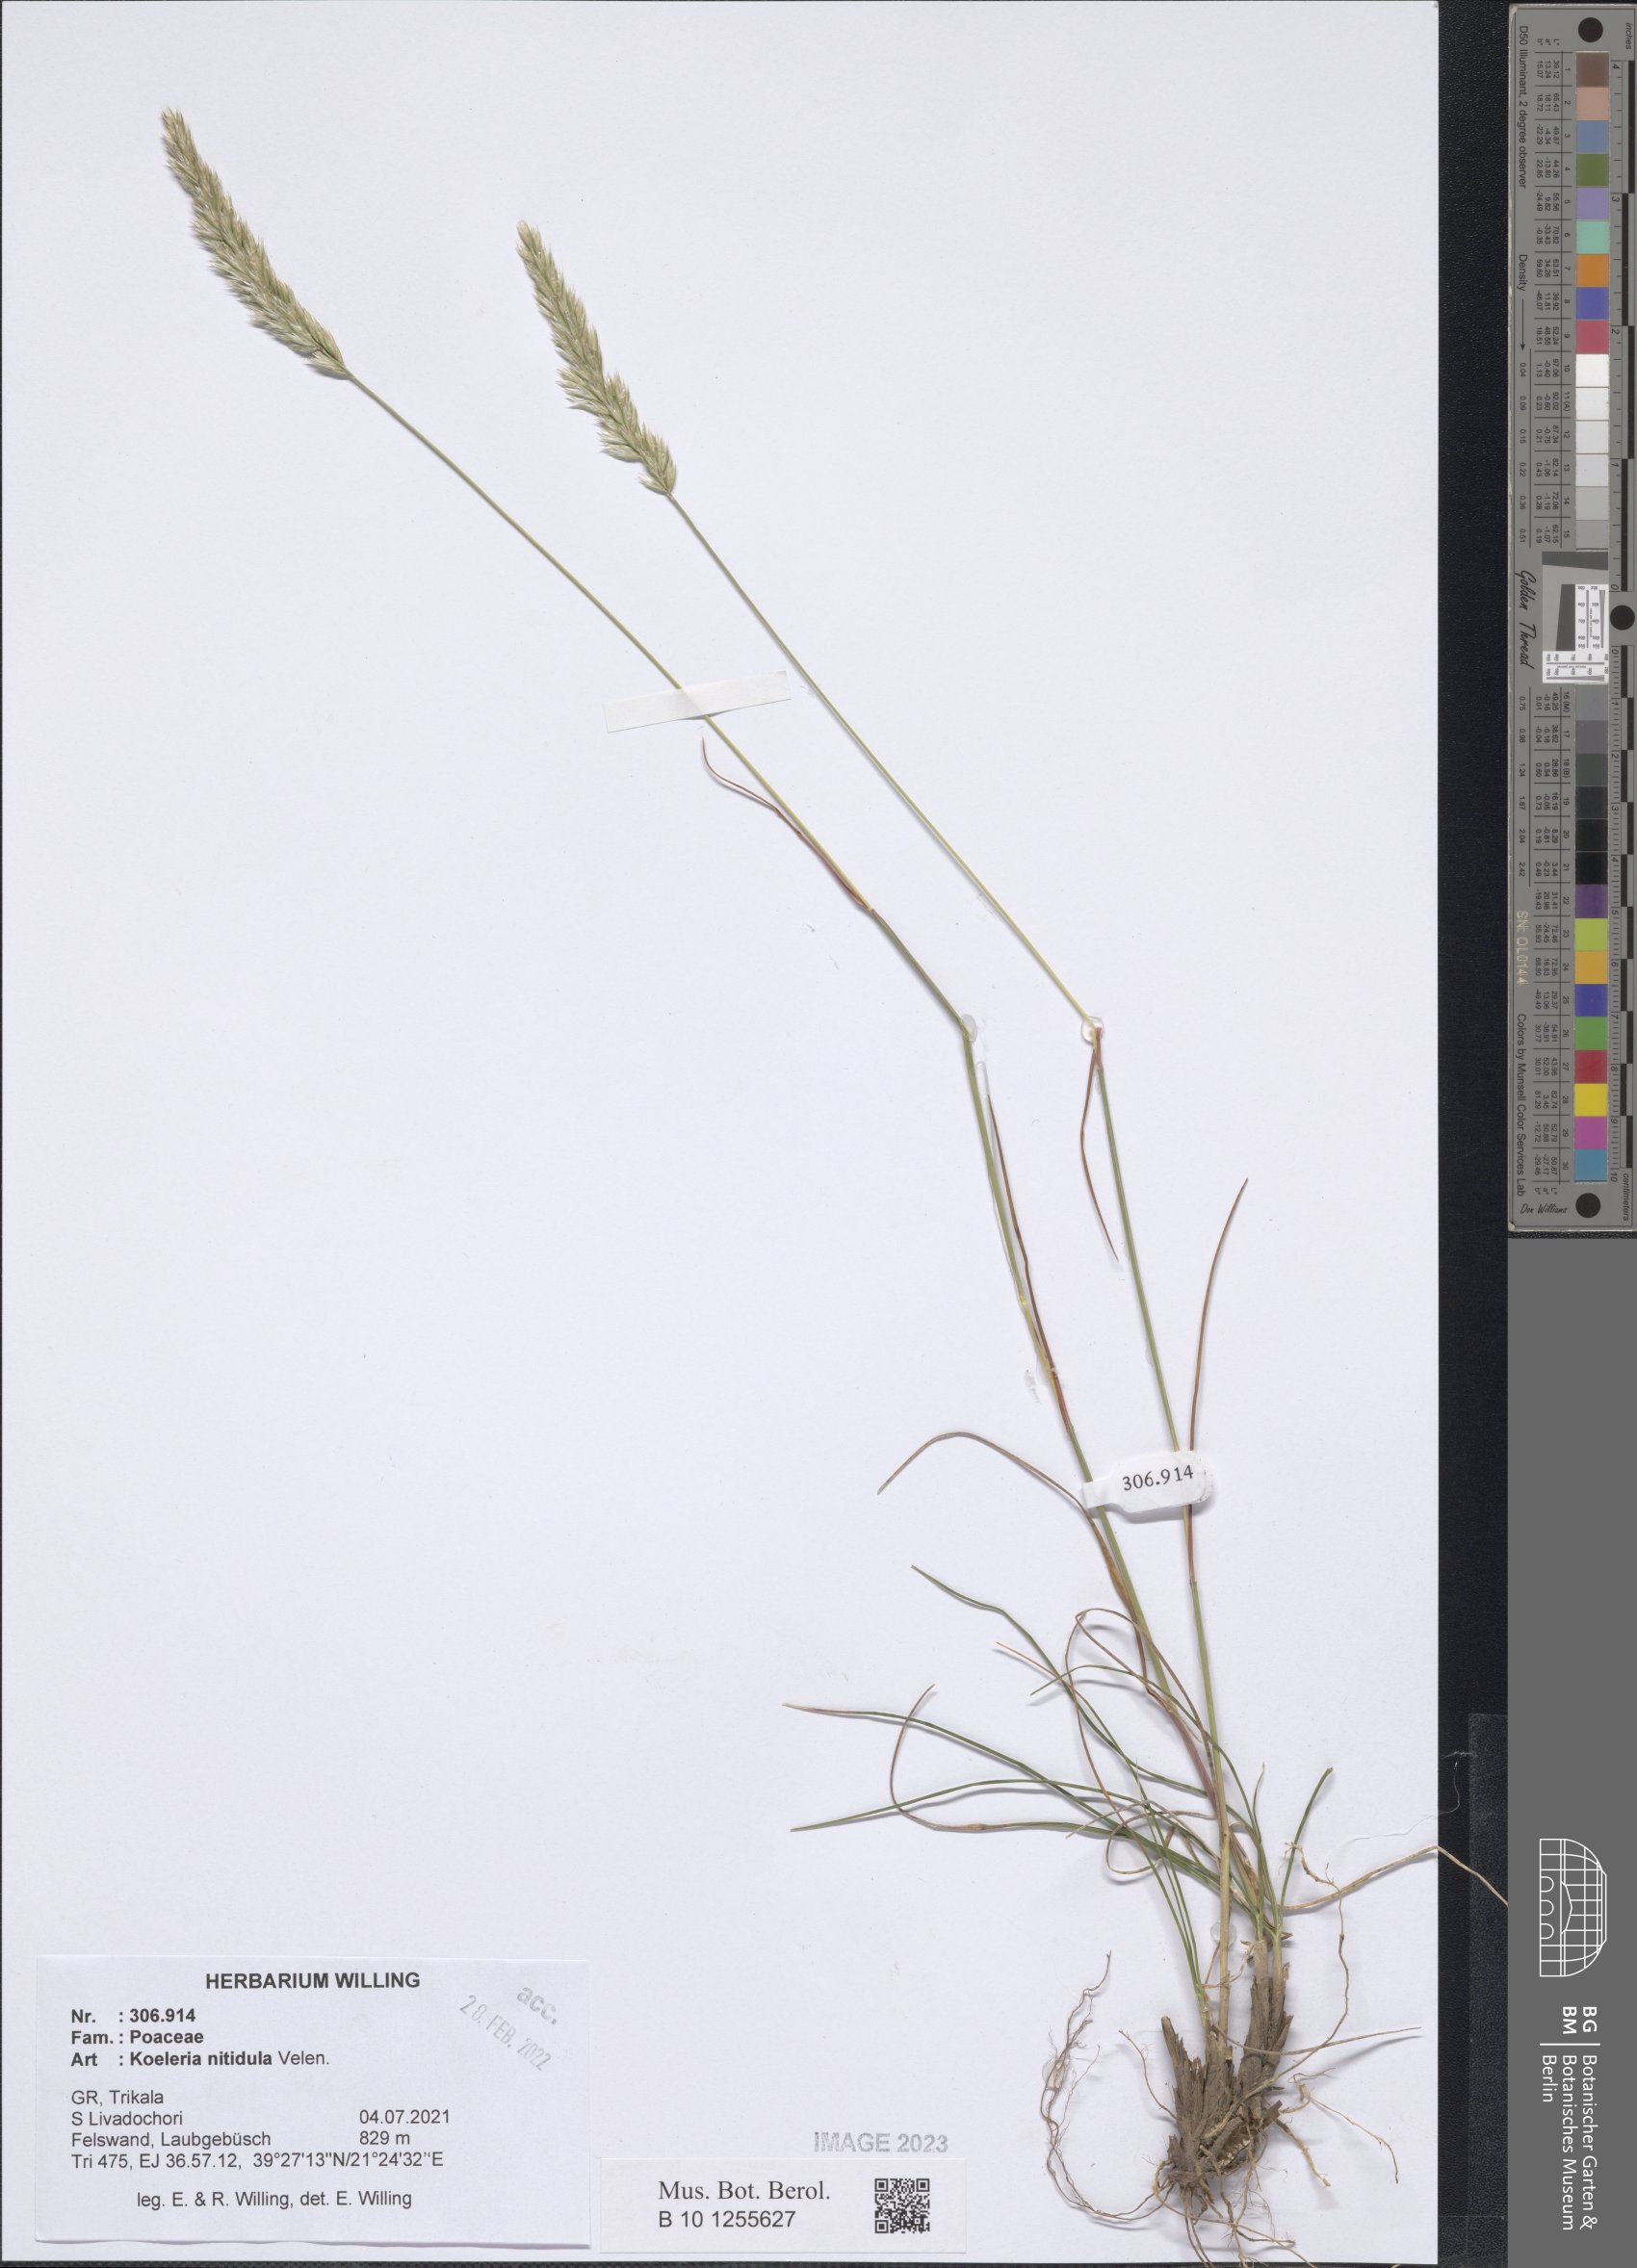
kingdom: Plantae
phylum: Tracheophyta
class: Liliopsida
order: Poales
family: Poaceae
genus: Koeleria
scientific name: Koeleria nitidula
